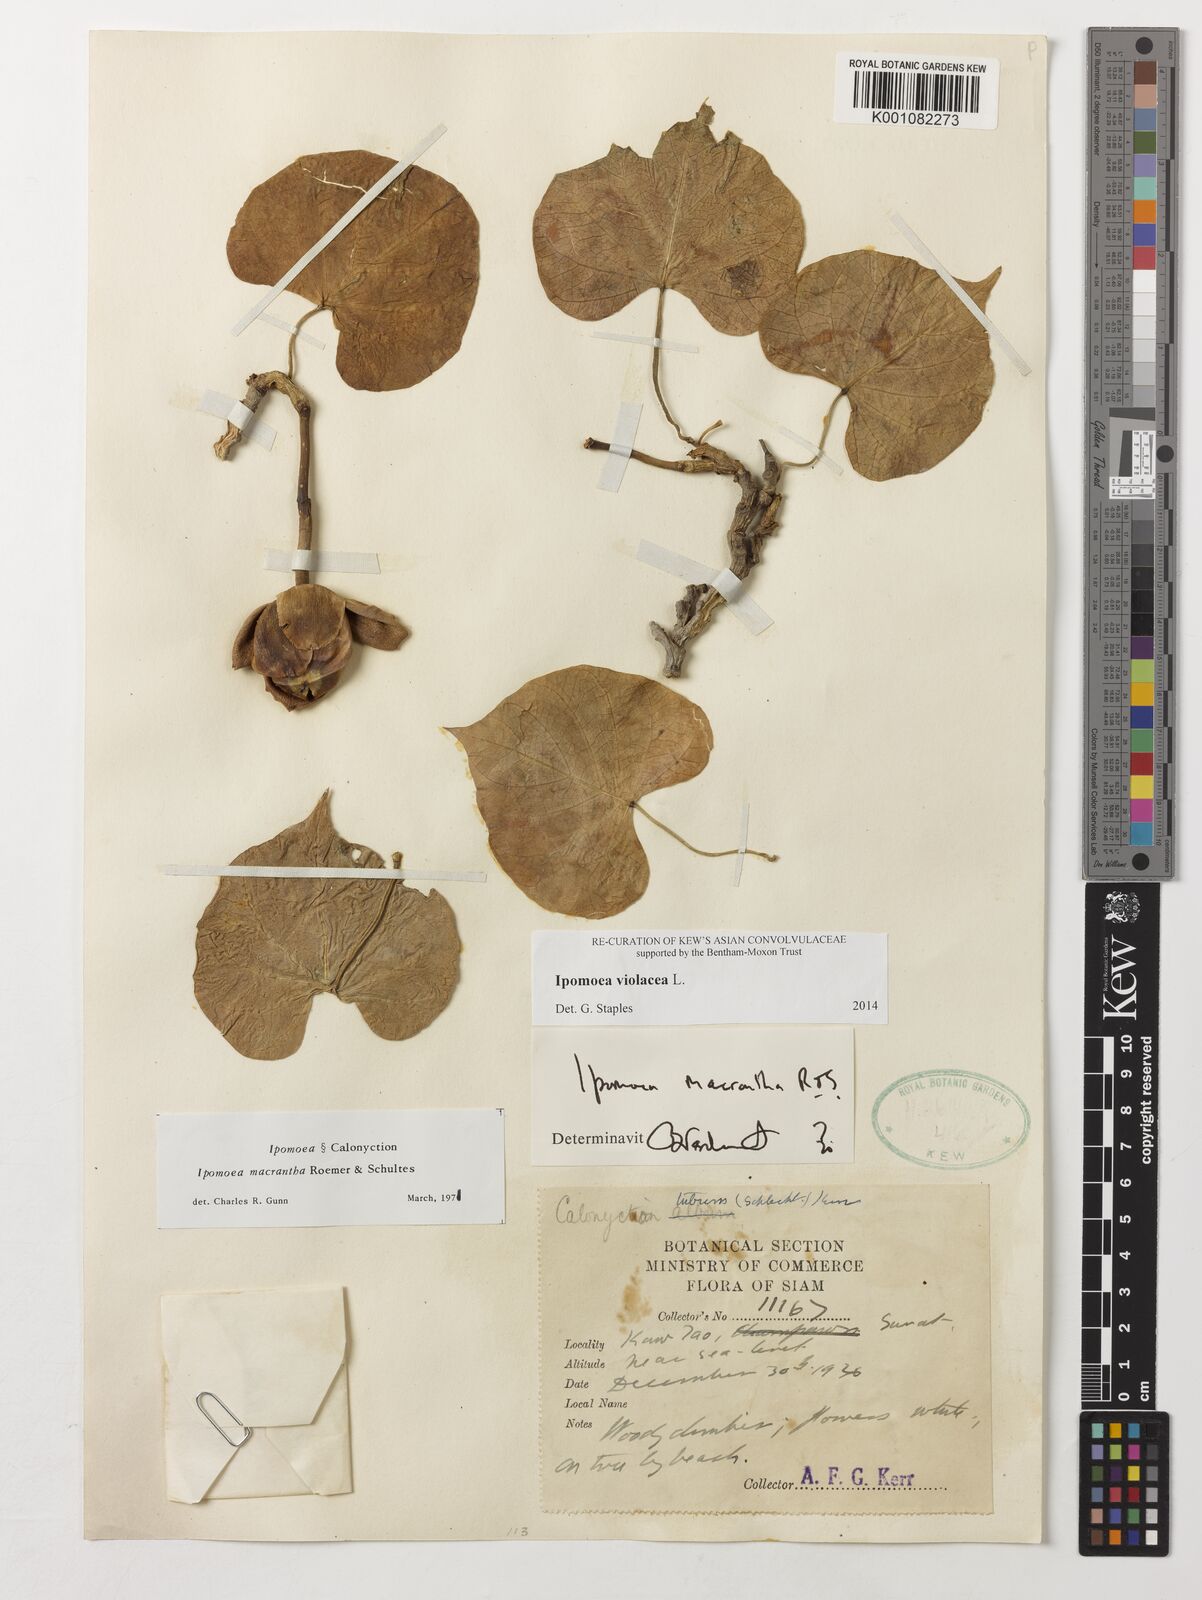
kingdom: Plantae
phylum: Tracheophyta
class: Magnoliopsida
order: Solanales
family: Convolvulaceae
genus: Ipomoea
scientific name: Ipomoea violacea
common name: Beach moonflower
